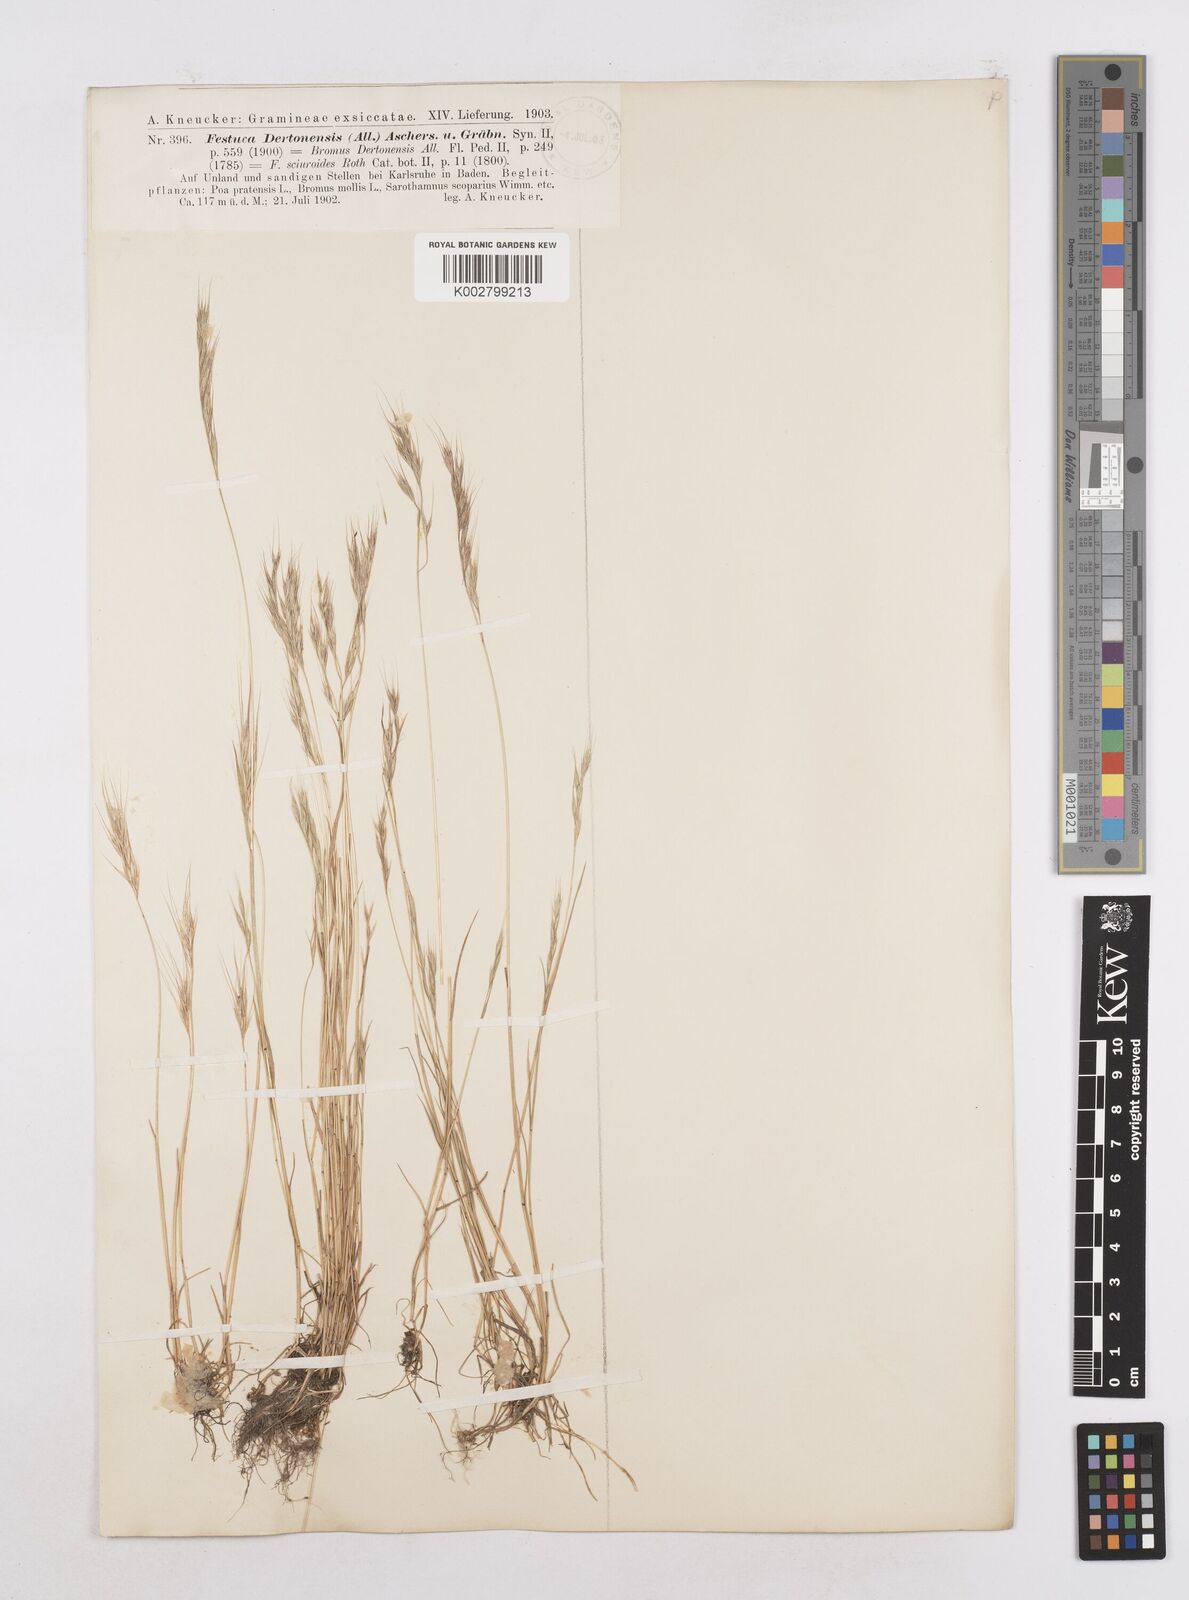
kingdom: Plantae
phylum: Tracheophyta
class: Liliopsida
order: Poales
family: Poaceae
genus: Festuca
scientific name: Festuca bromoides
